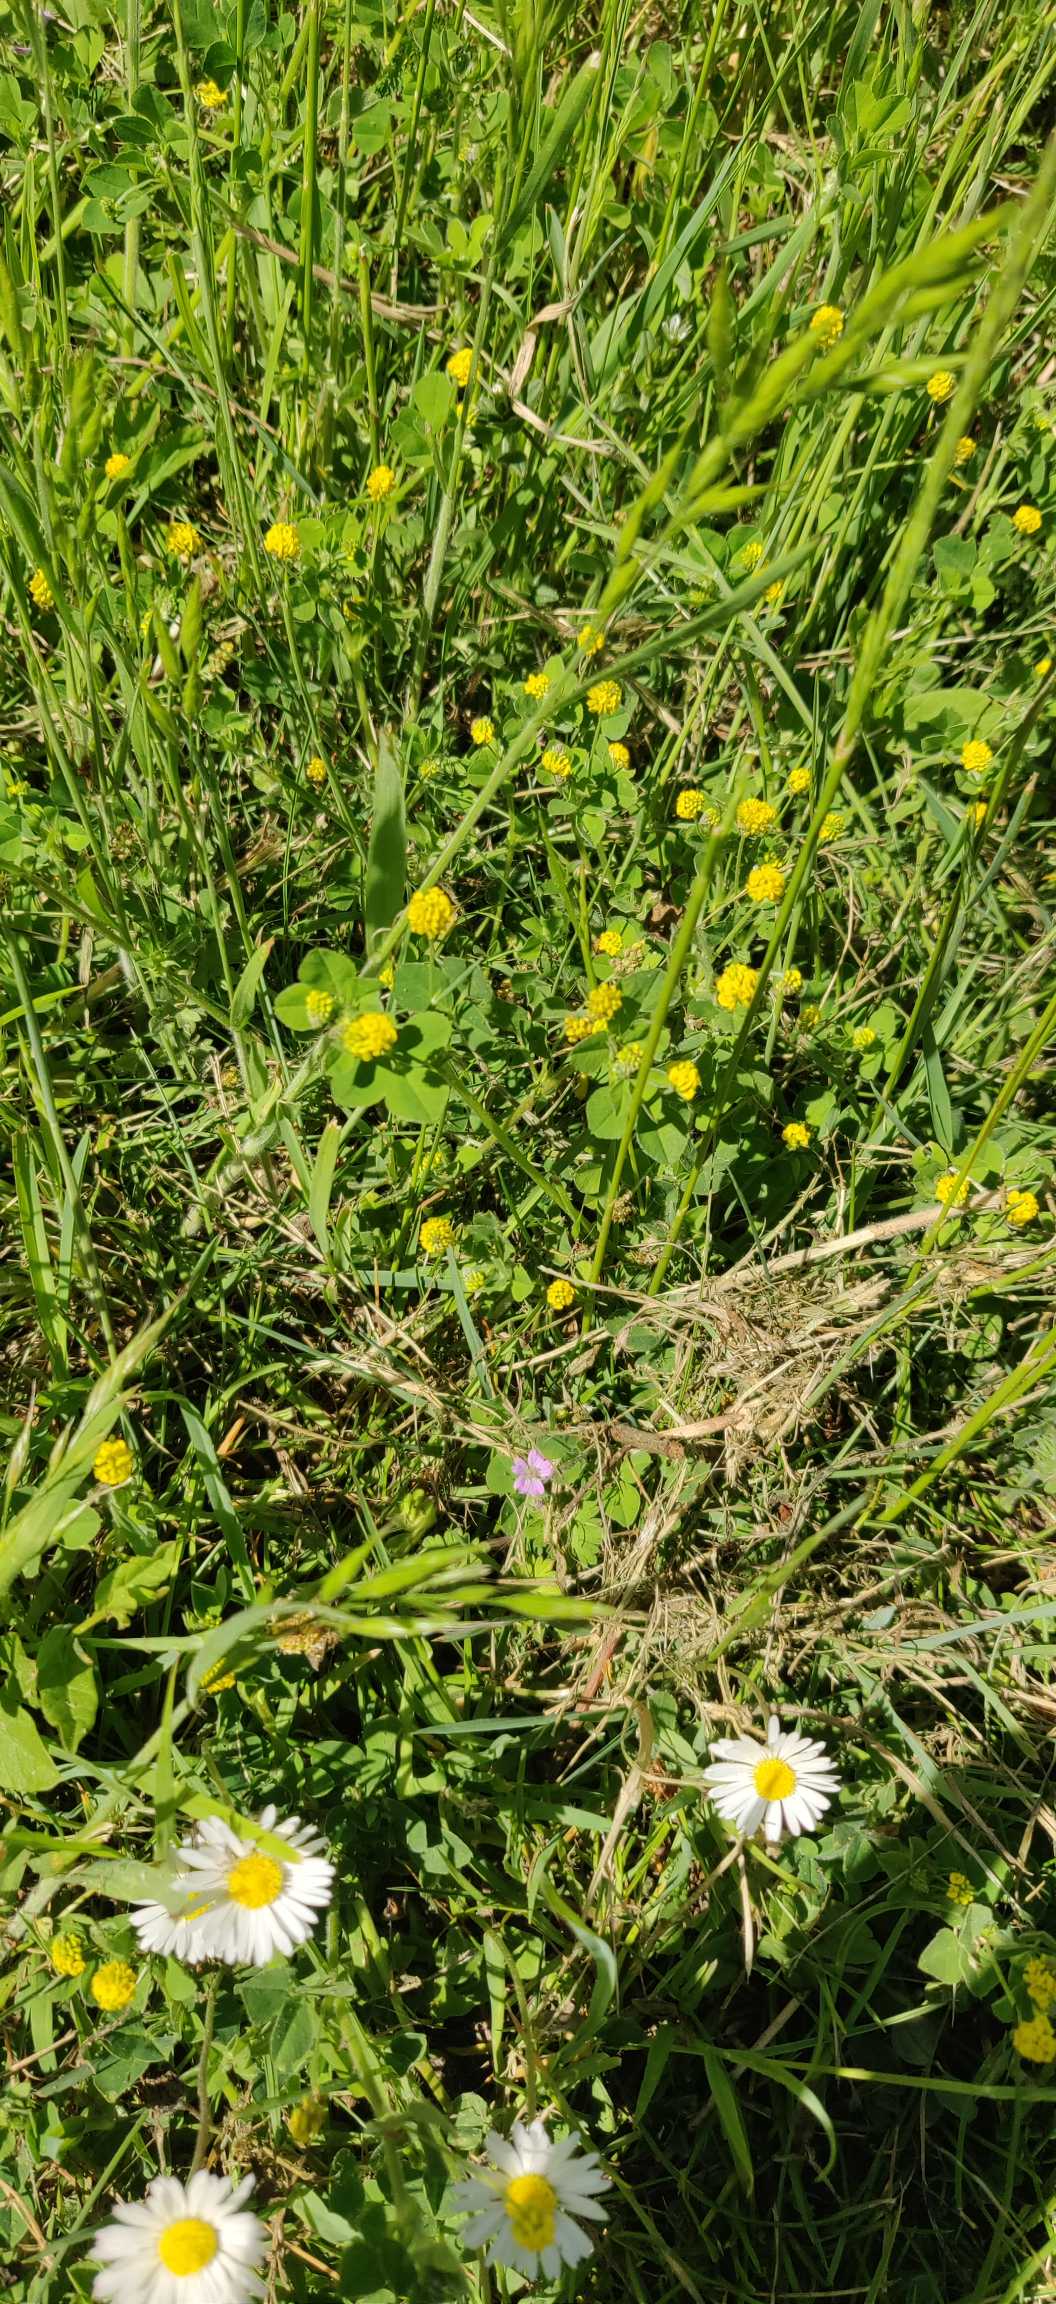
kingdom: Plantae
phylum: Tracheophyta
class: Magnoliopsida
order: Fabales
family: Fabaceae
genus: Medicago
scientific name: Medicago lupulina
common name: Humle-sneglebælg
